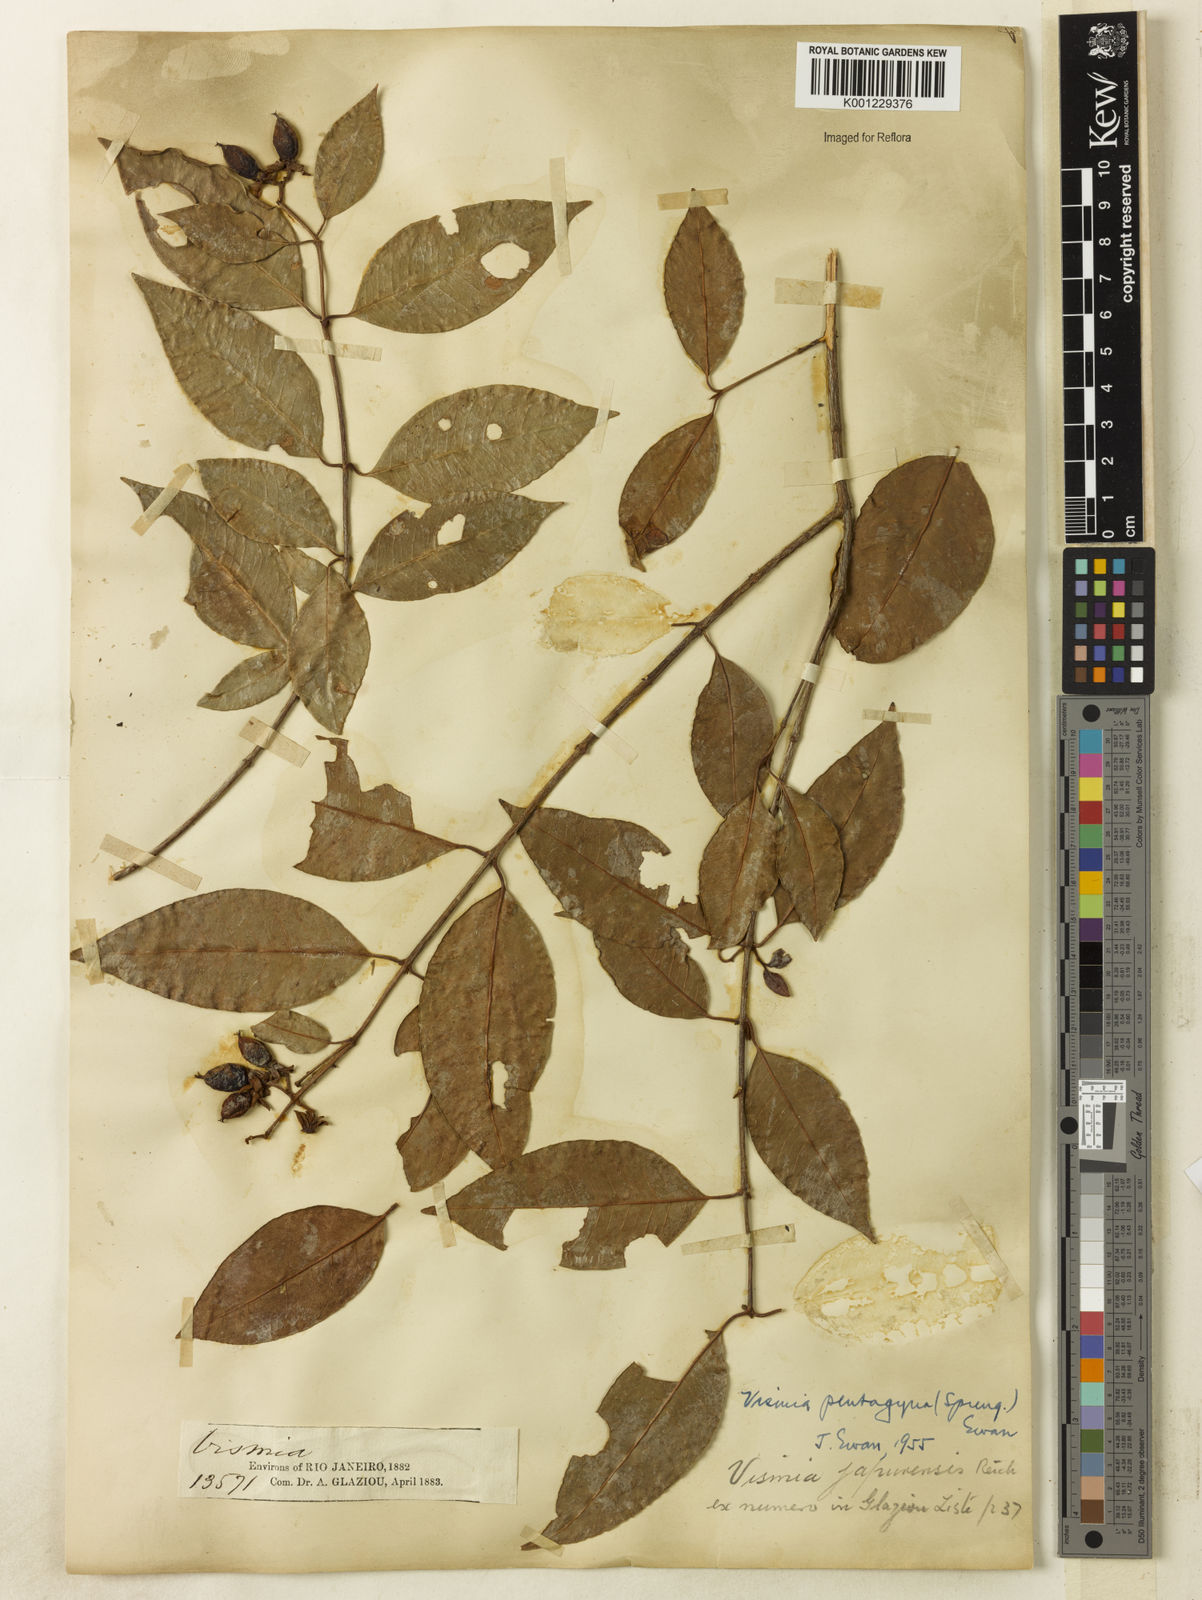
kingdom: Plantae
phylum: Tracheophyta
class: Magnoliopsida
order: Malpighiales
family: Hypericaceae
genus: Vismia
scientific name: Vismia pentagyna
